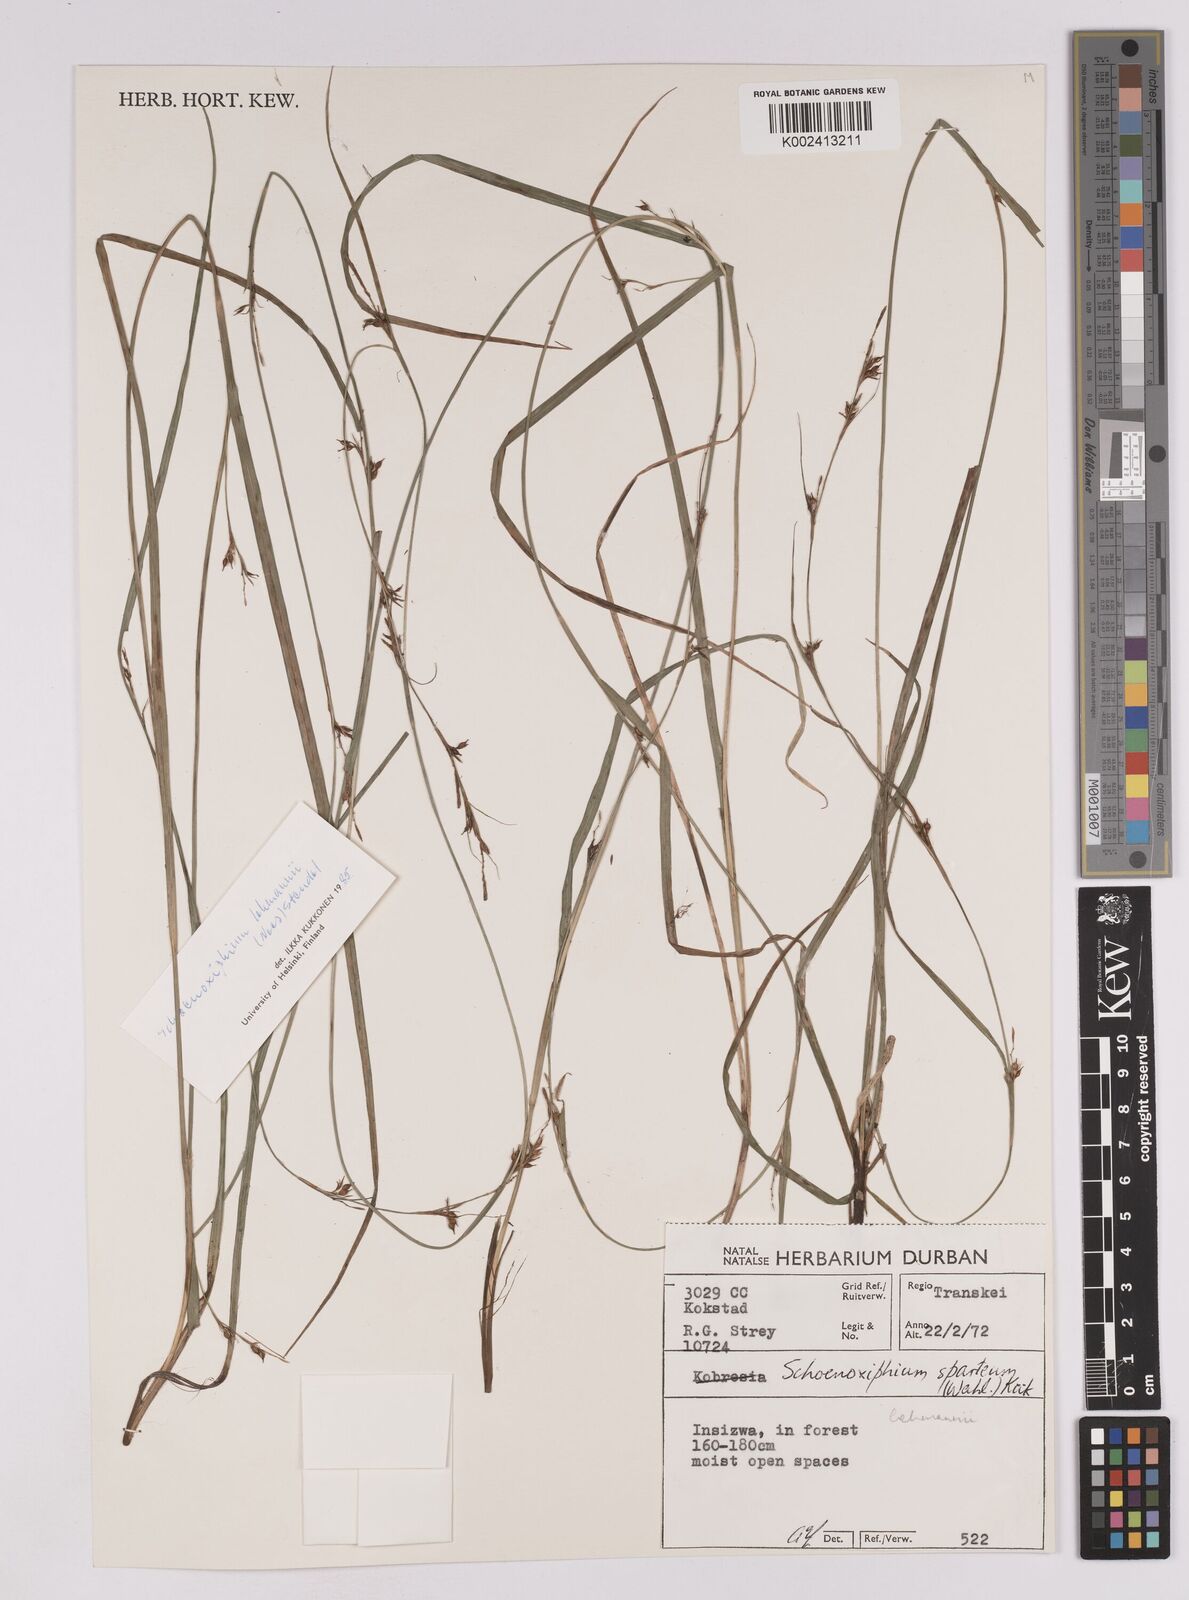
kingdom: Plantae
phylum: Tracheophyta
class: Liliopsida
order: Poales
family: Cyperaceae
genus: Carex
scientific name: Carex uhligii
